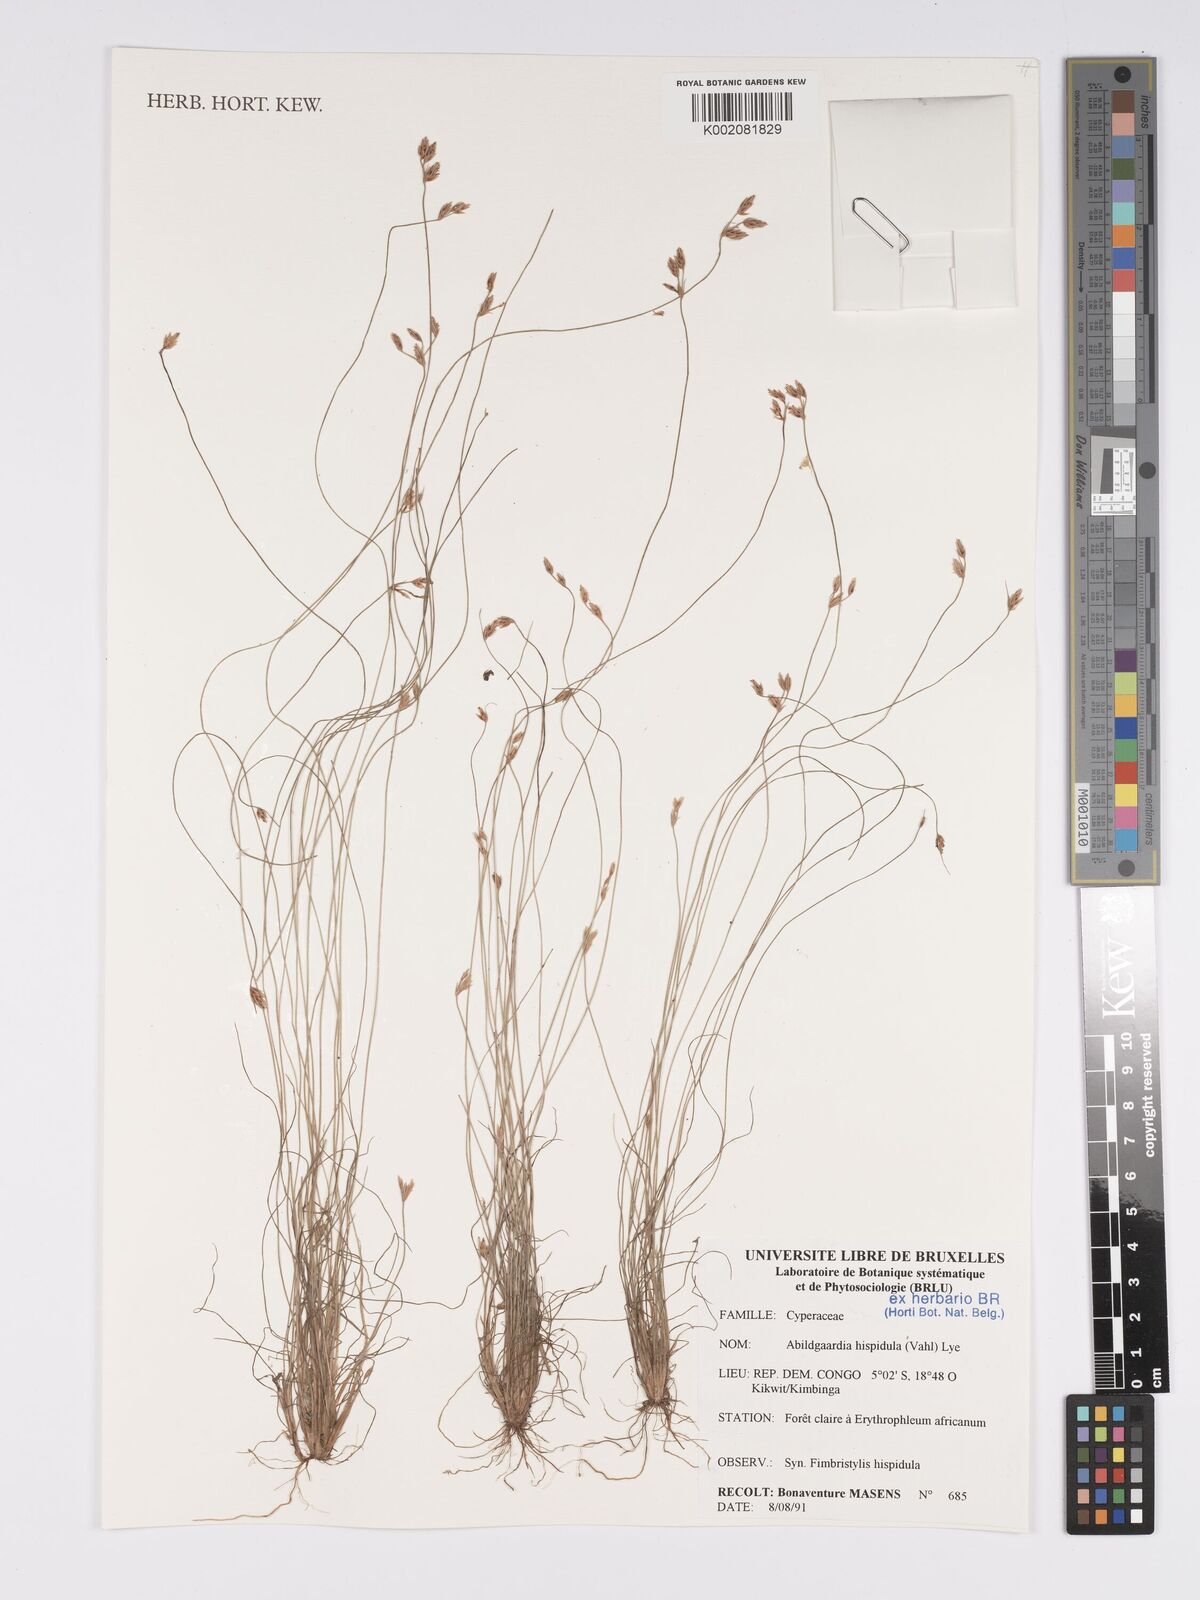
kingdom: Plantae
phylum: Tracheophyta
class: Liliopsida
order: Poales
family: Cyperaceae
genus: Bulbostylis
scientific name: Bulbostylis hispidula
